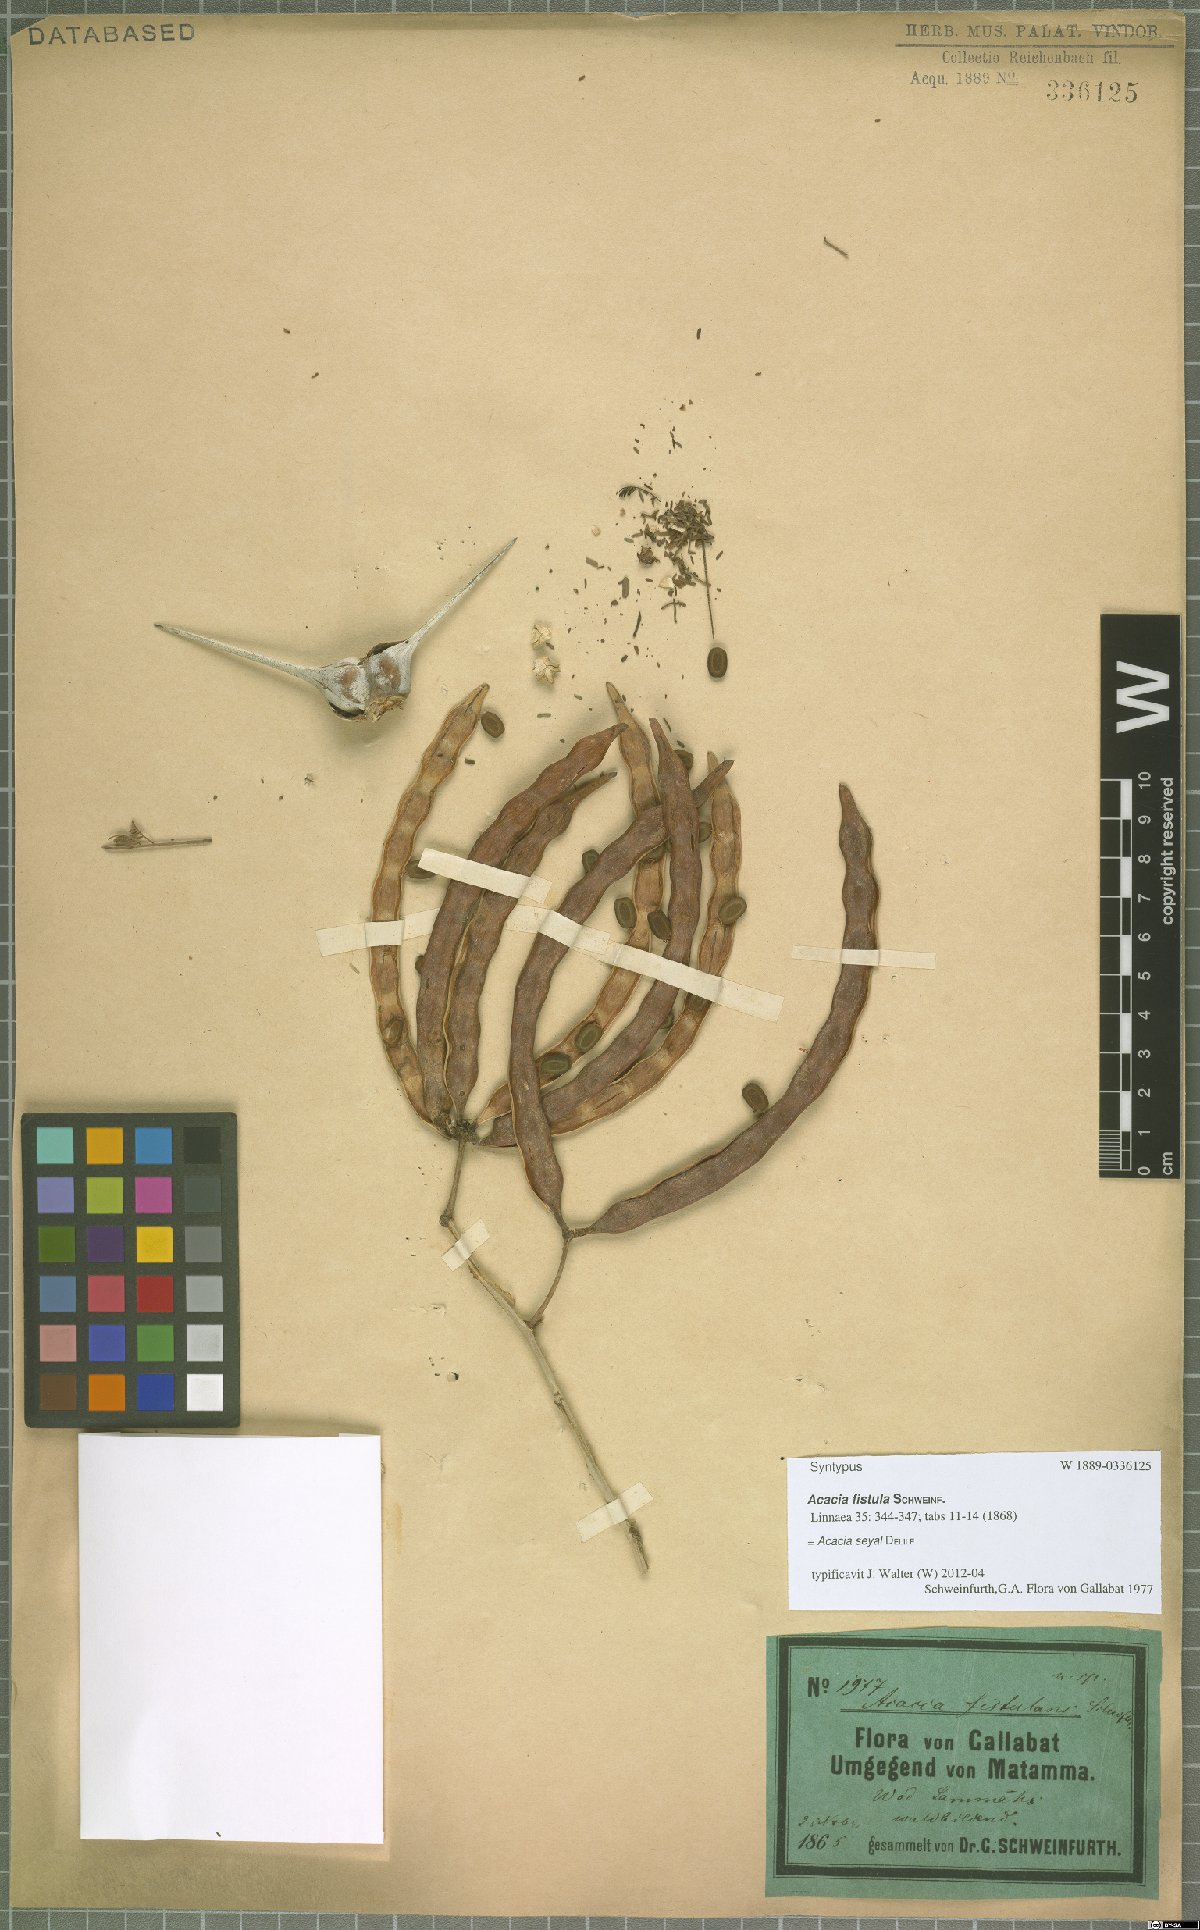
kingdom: Plantae
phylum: Tracheophyta
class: Magnoliopsida
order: Fabales
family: Fabaceae
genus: Vachellia
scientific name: Vachellia seyal
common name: Thirtythorn
